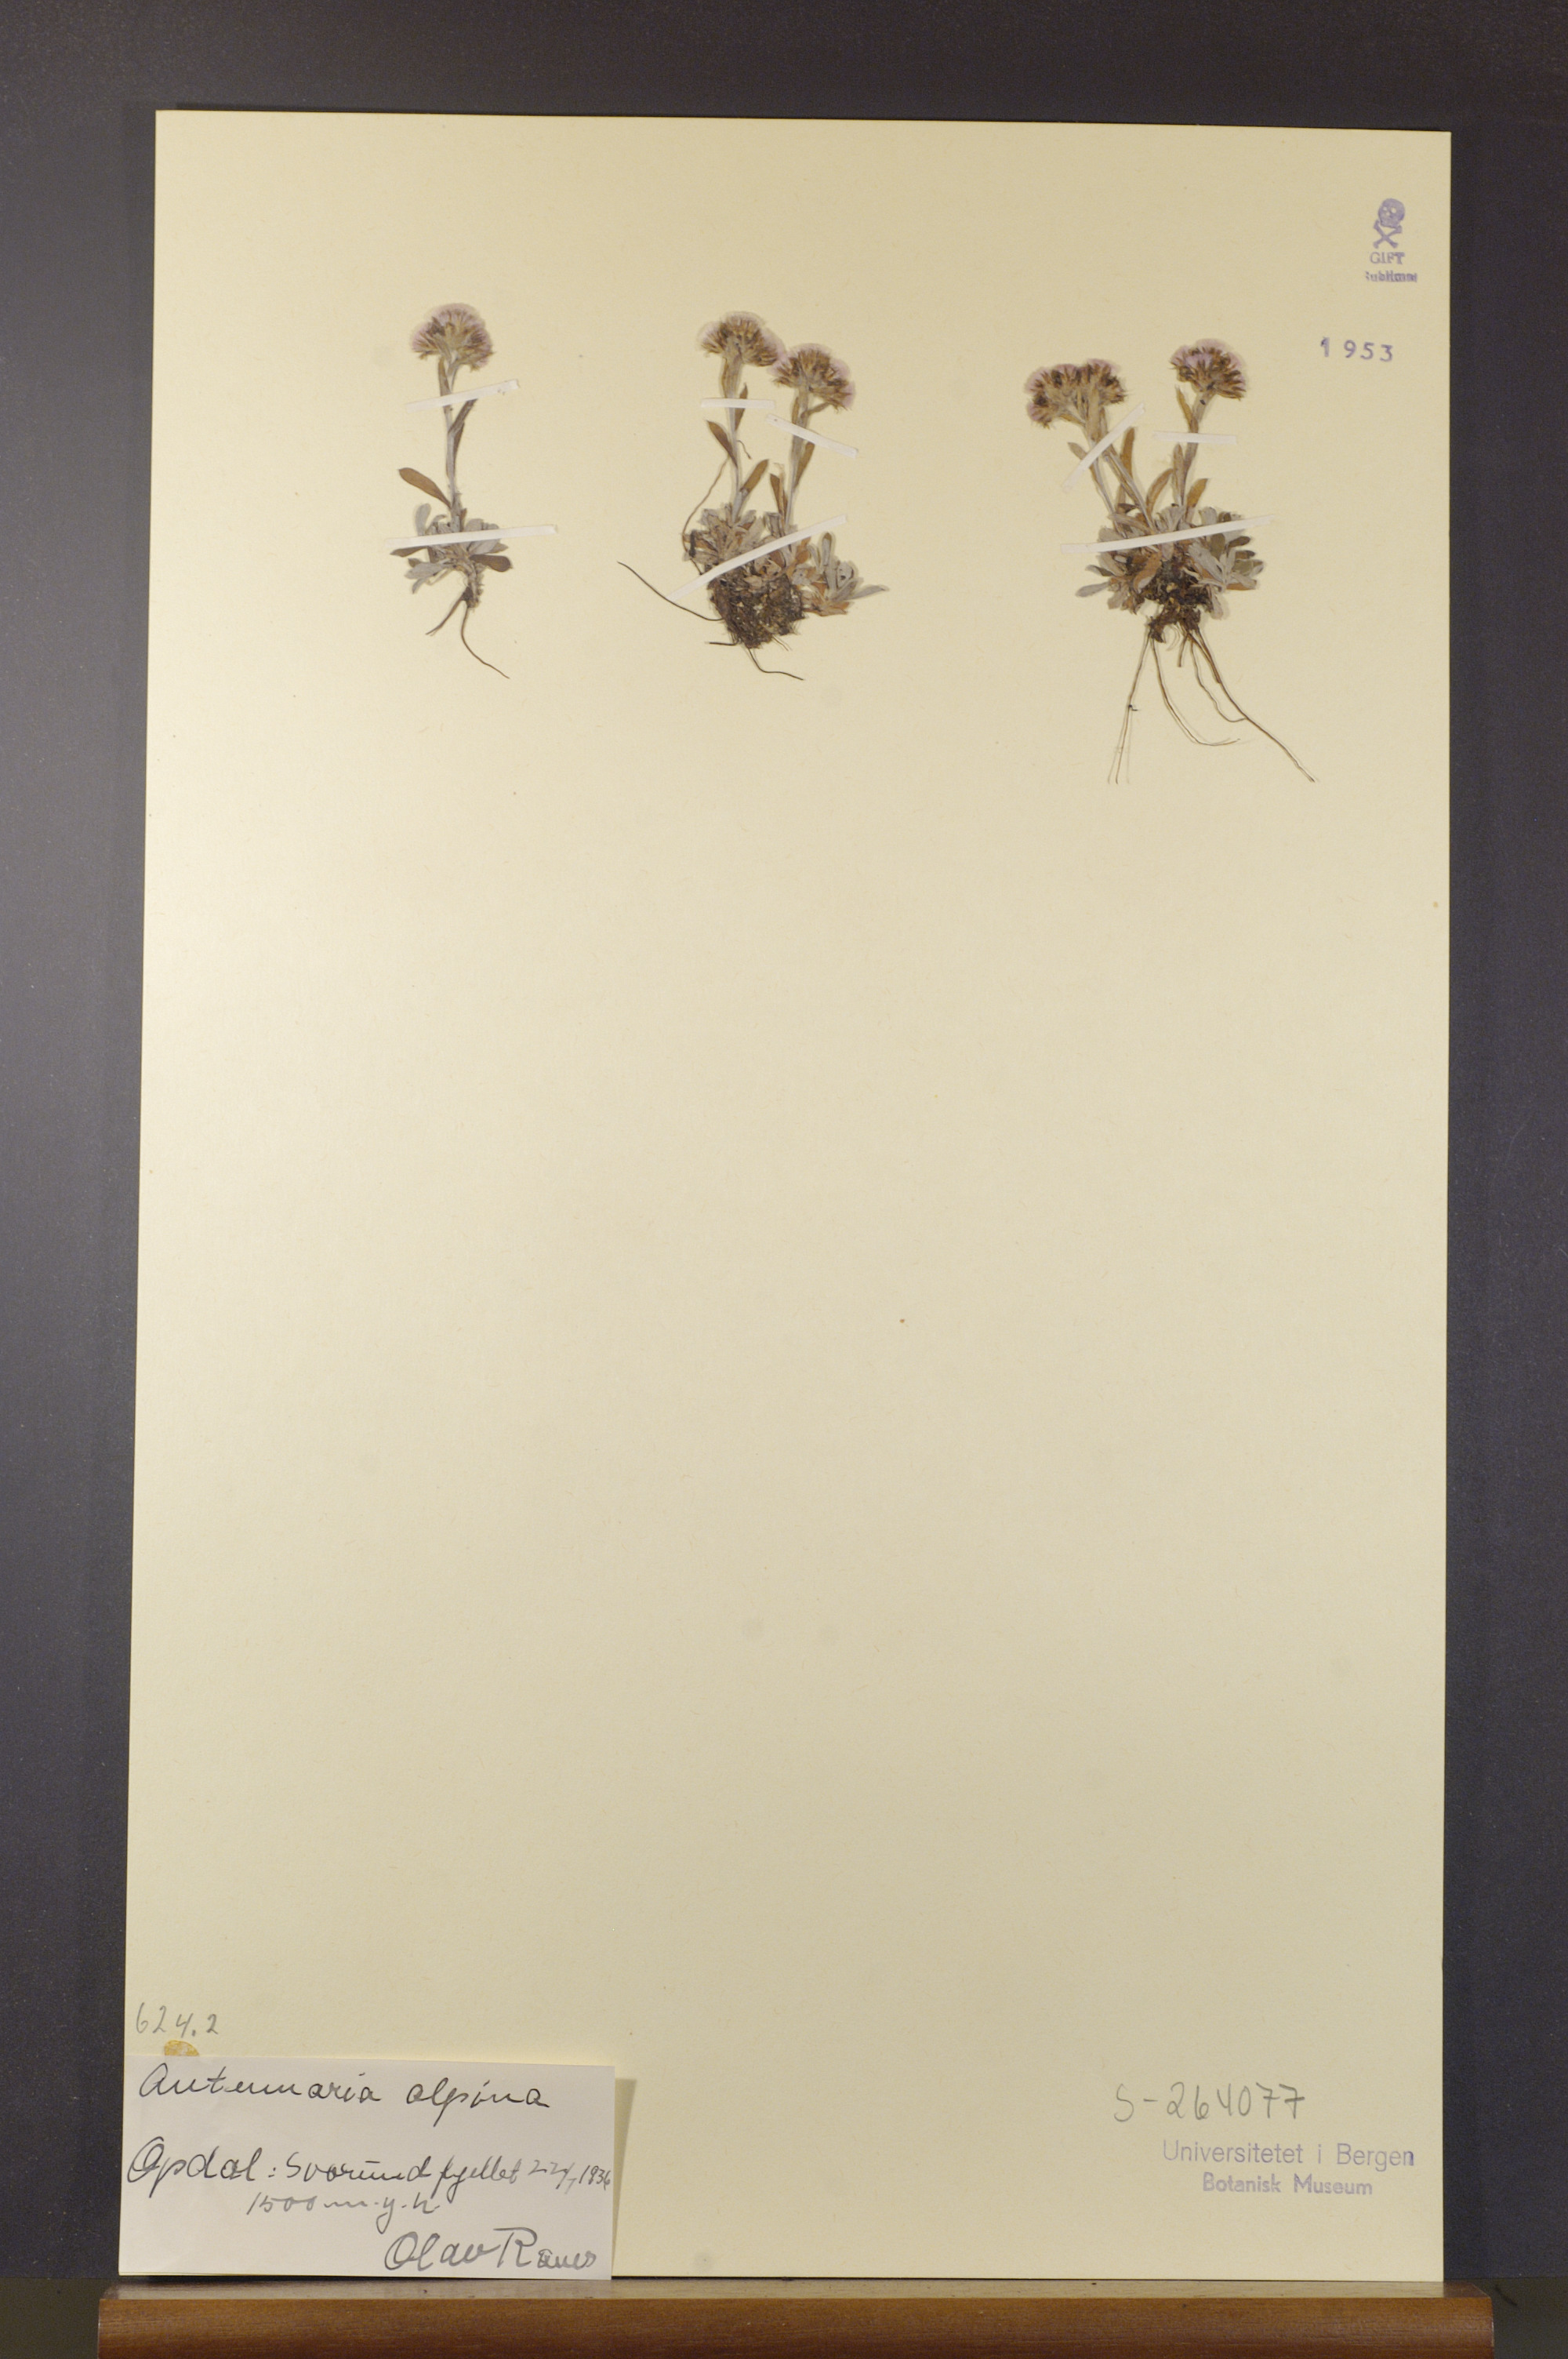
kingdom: Plantae
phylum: Tracheophyta
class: Magnoliopsida
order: Asterales
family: Asteraceae
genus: Antennaria
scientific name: Antennaria alpina
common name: Alpine pussytoes
